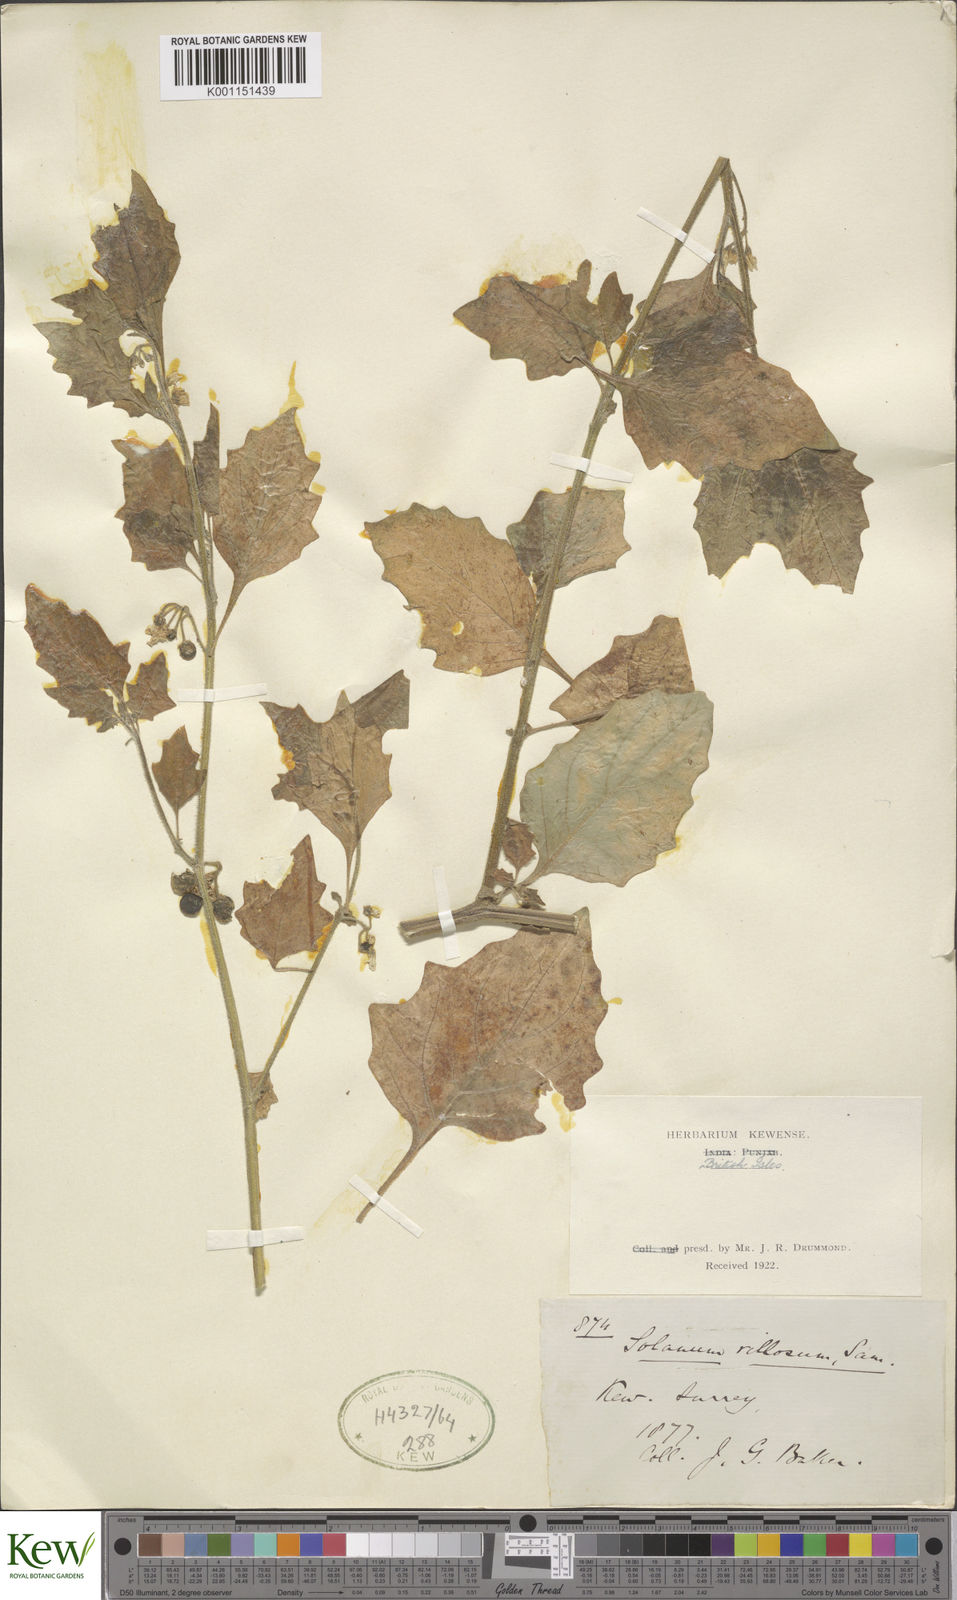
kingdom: Plantae
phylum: Tracheophyta
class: Magnoliopsida
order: Solanales
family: Solanaceae
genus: Solanum
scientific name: Solanum villosum
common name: Red nightshade
